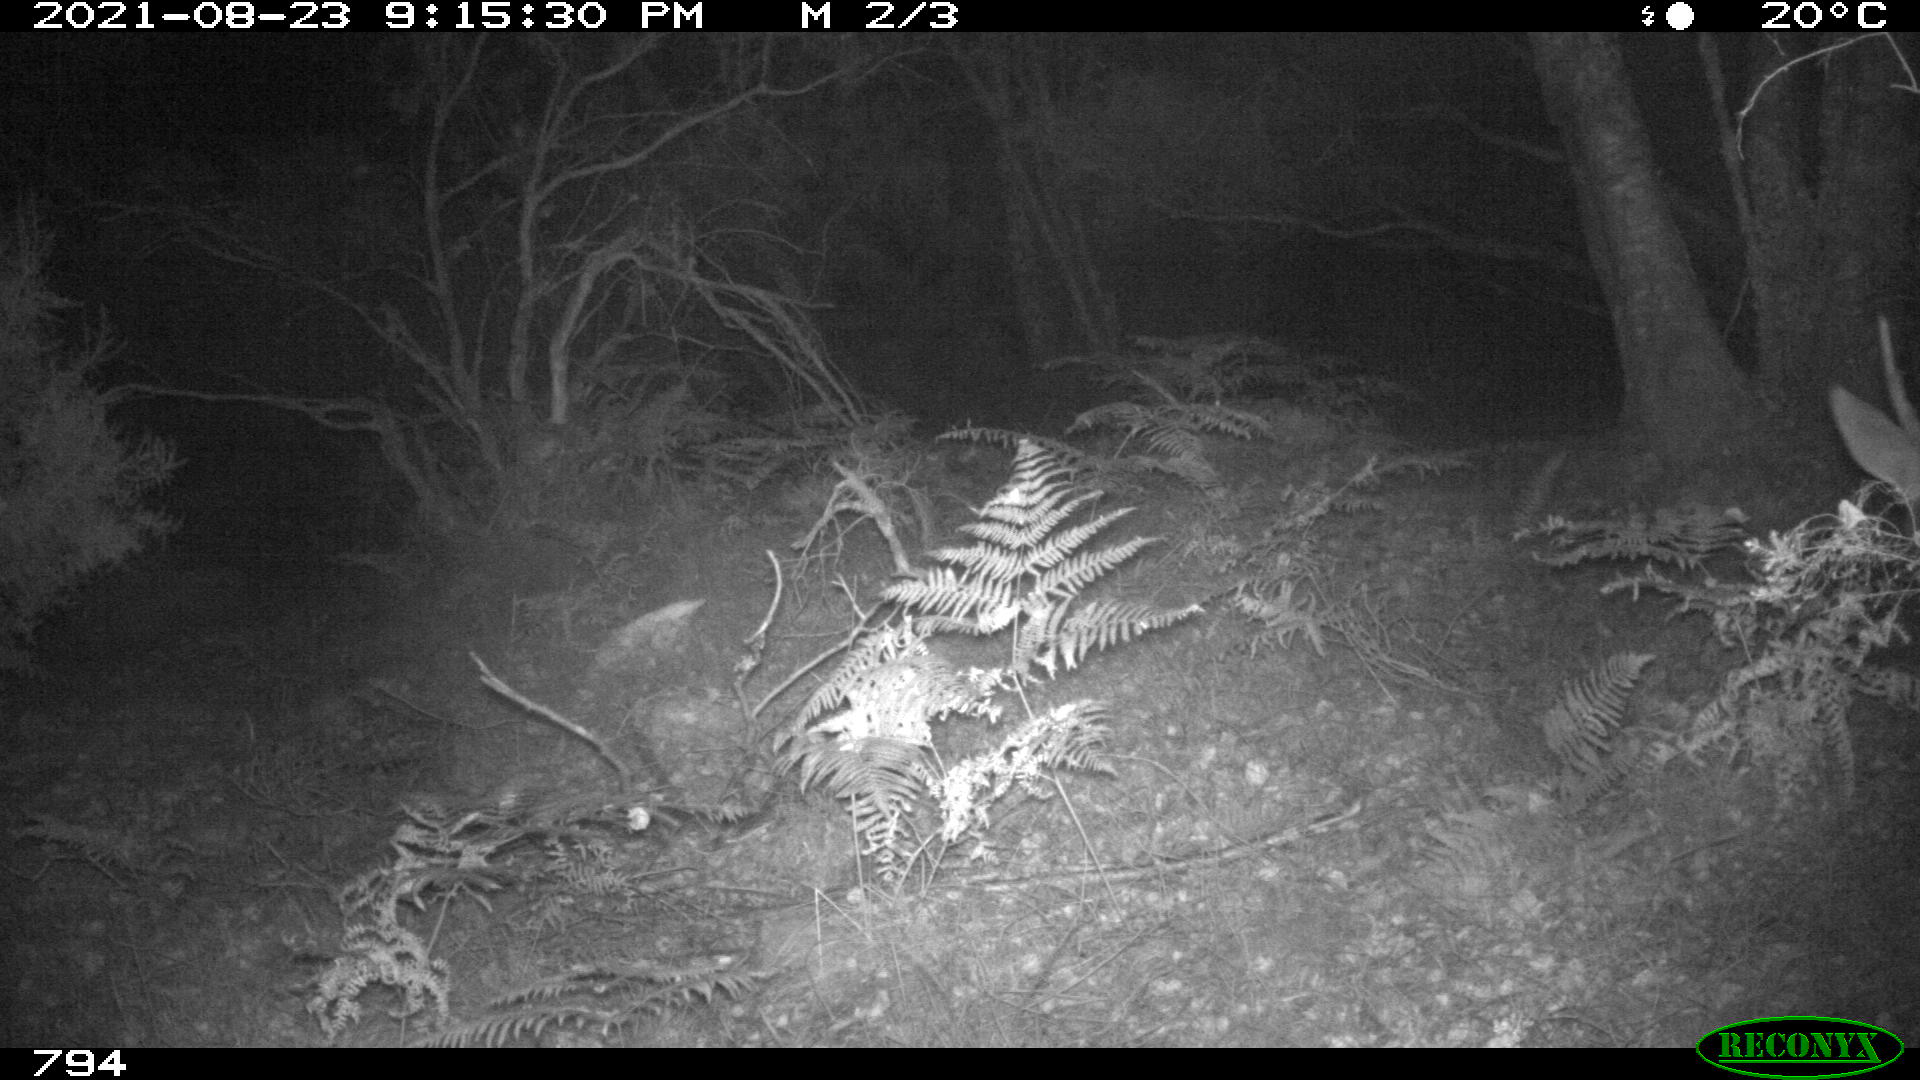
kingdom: Animalia
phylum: Chordata
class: Mammalia
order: Artiodactyla
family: Cervidae
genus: Capreolus
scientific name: Capreolus capreolus
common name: Western roe deer
